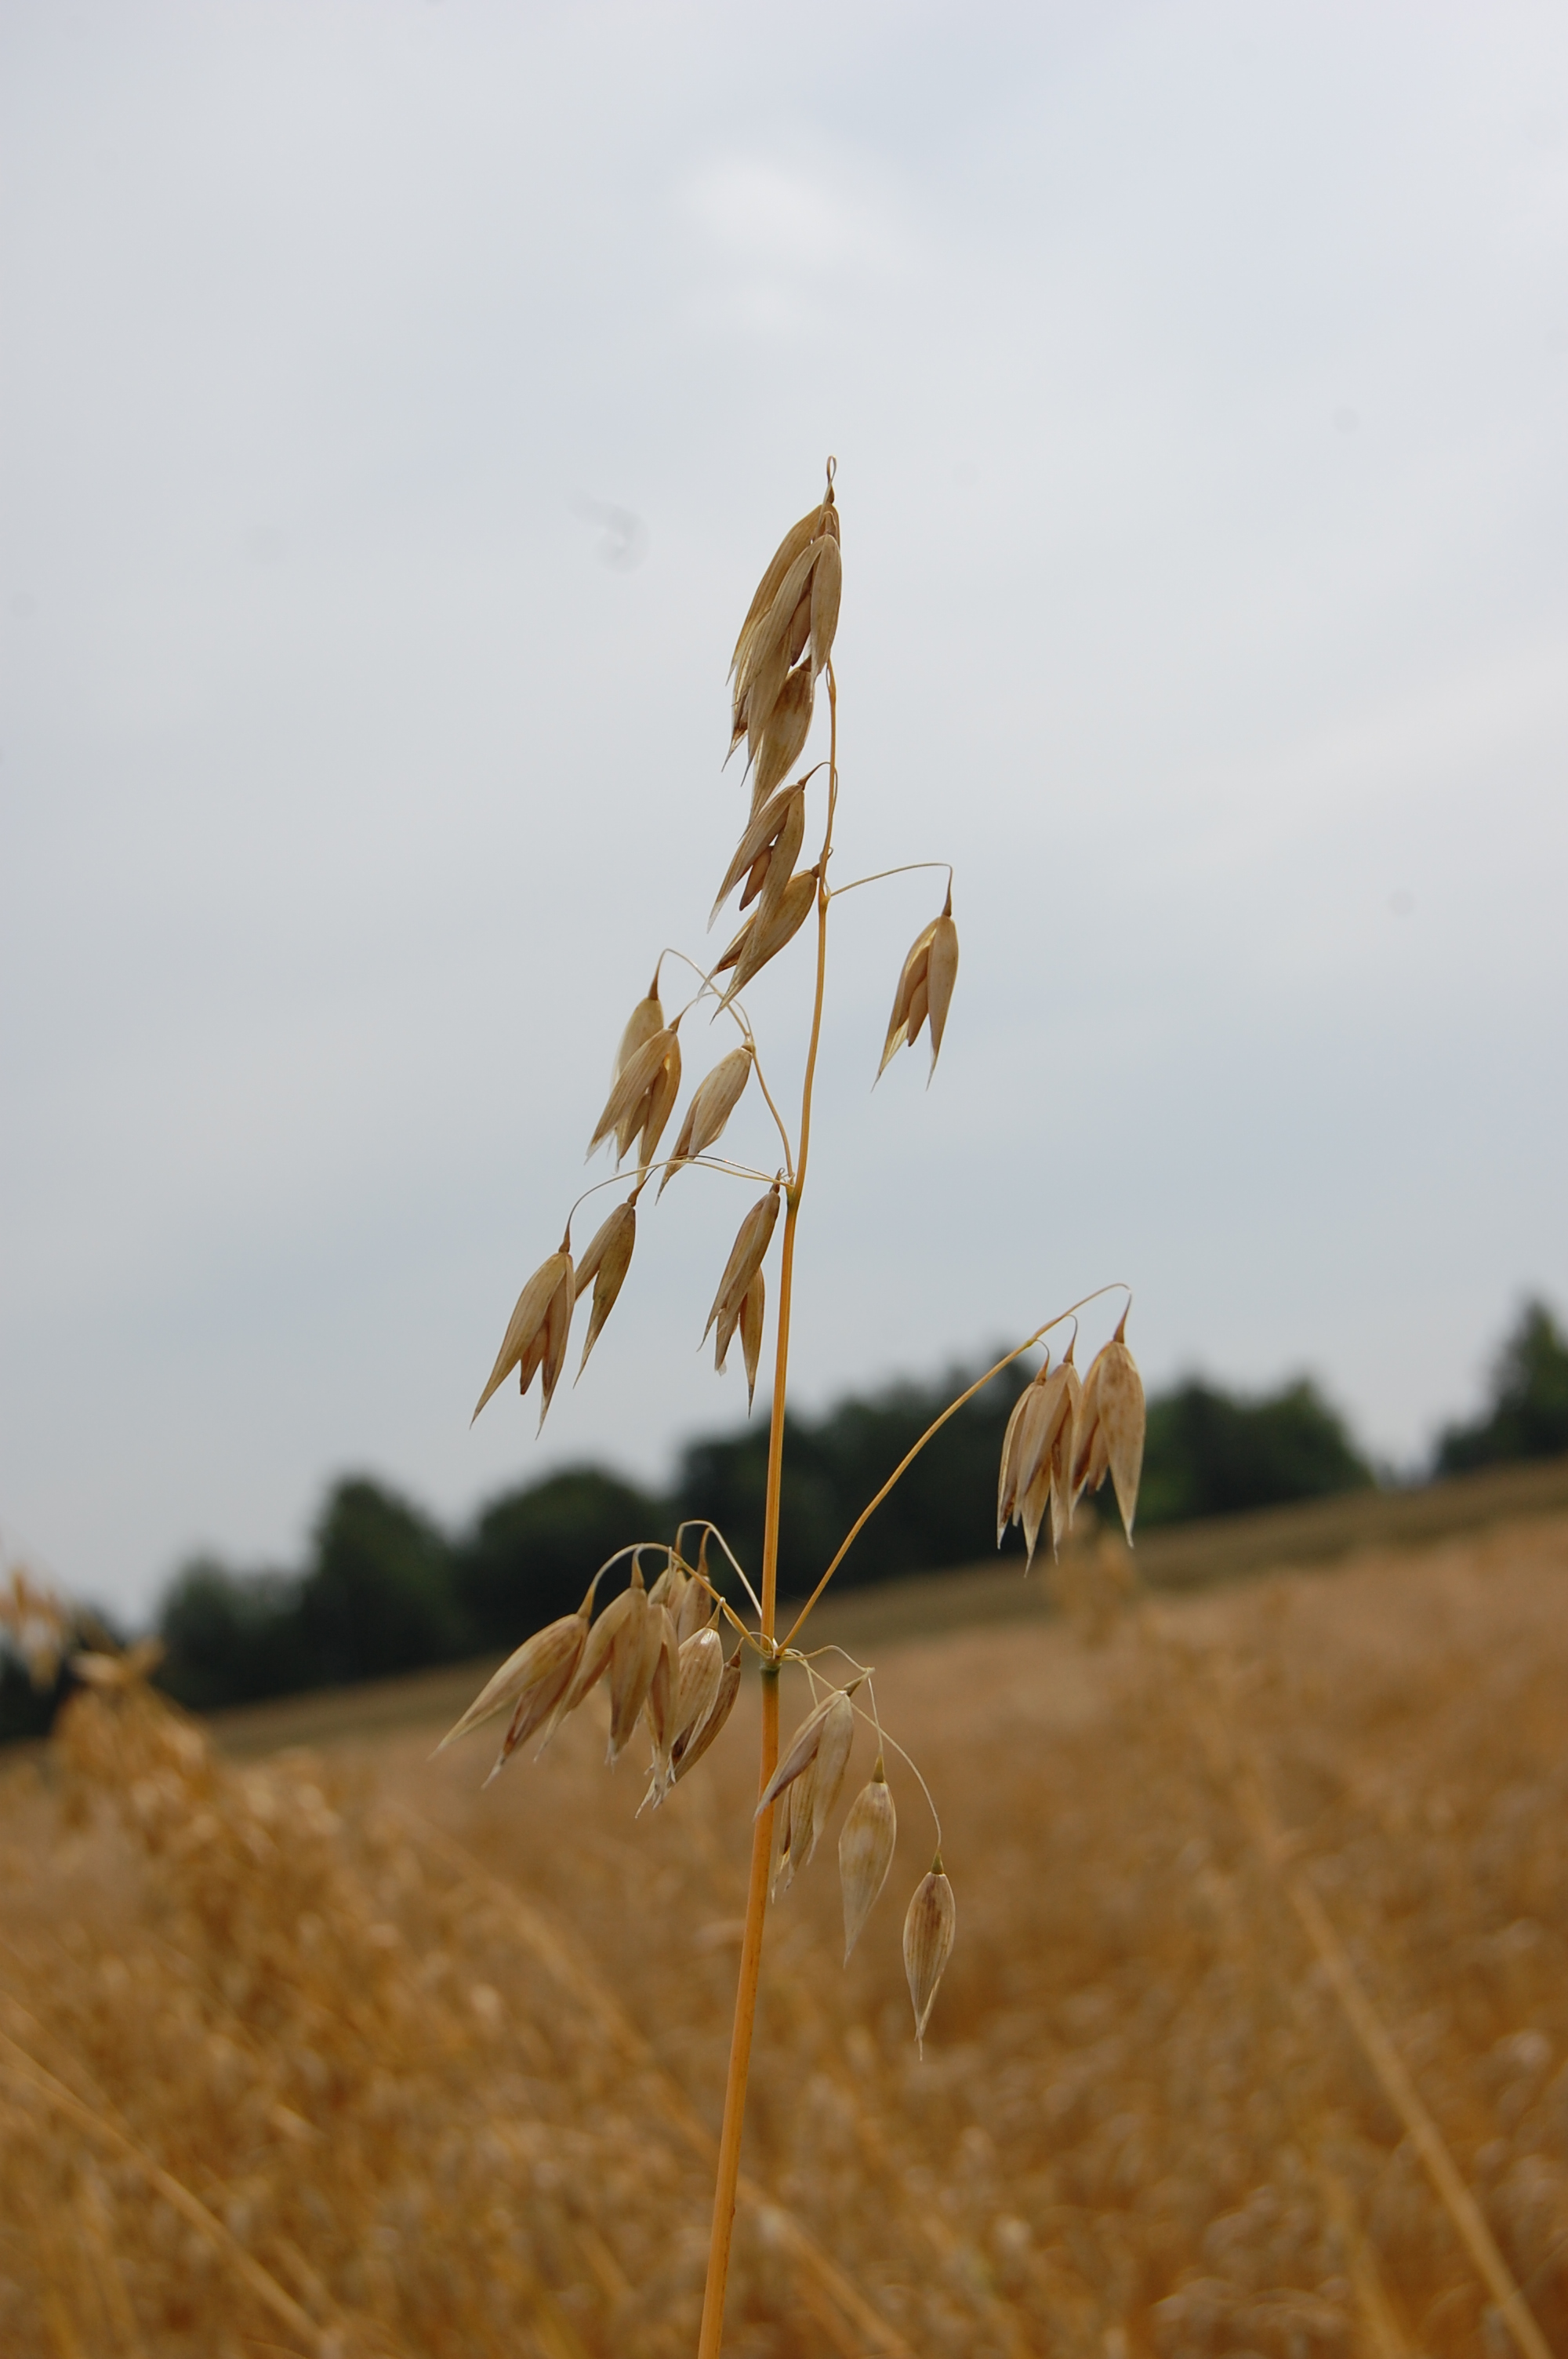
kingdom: Plantae
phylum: Tracheophyta
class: Liliopsida
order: Poales
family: Poaceae
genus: Avena
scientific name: Avena sativa
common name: Oat
